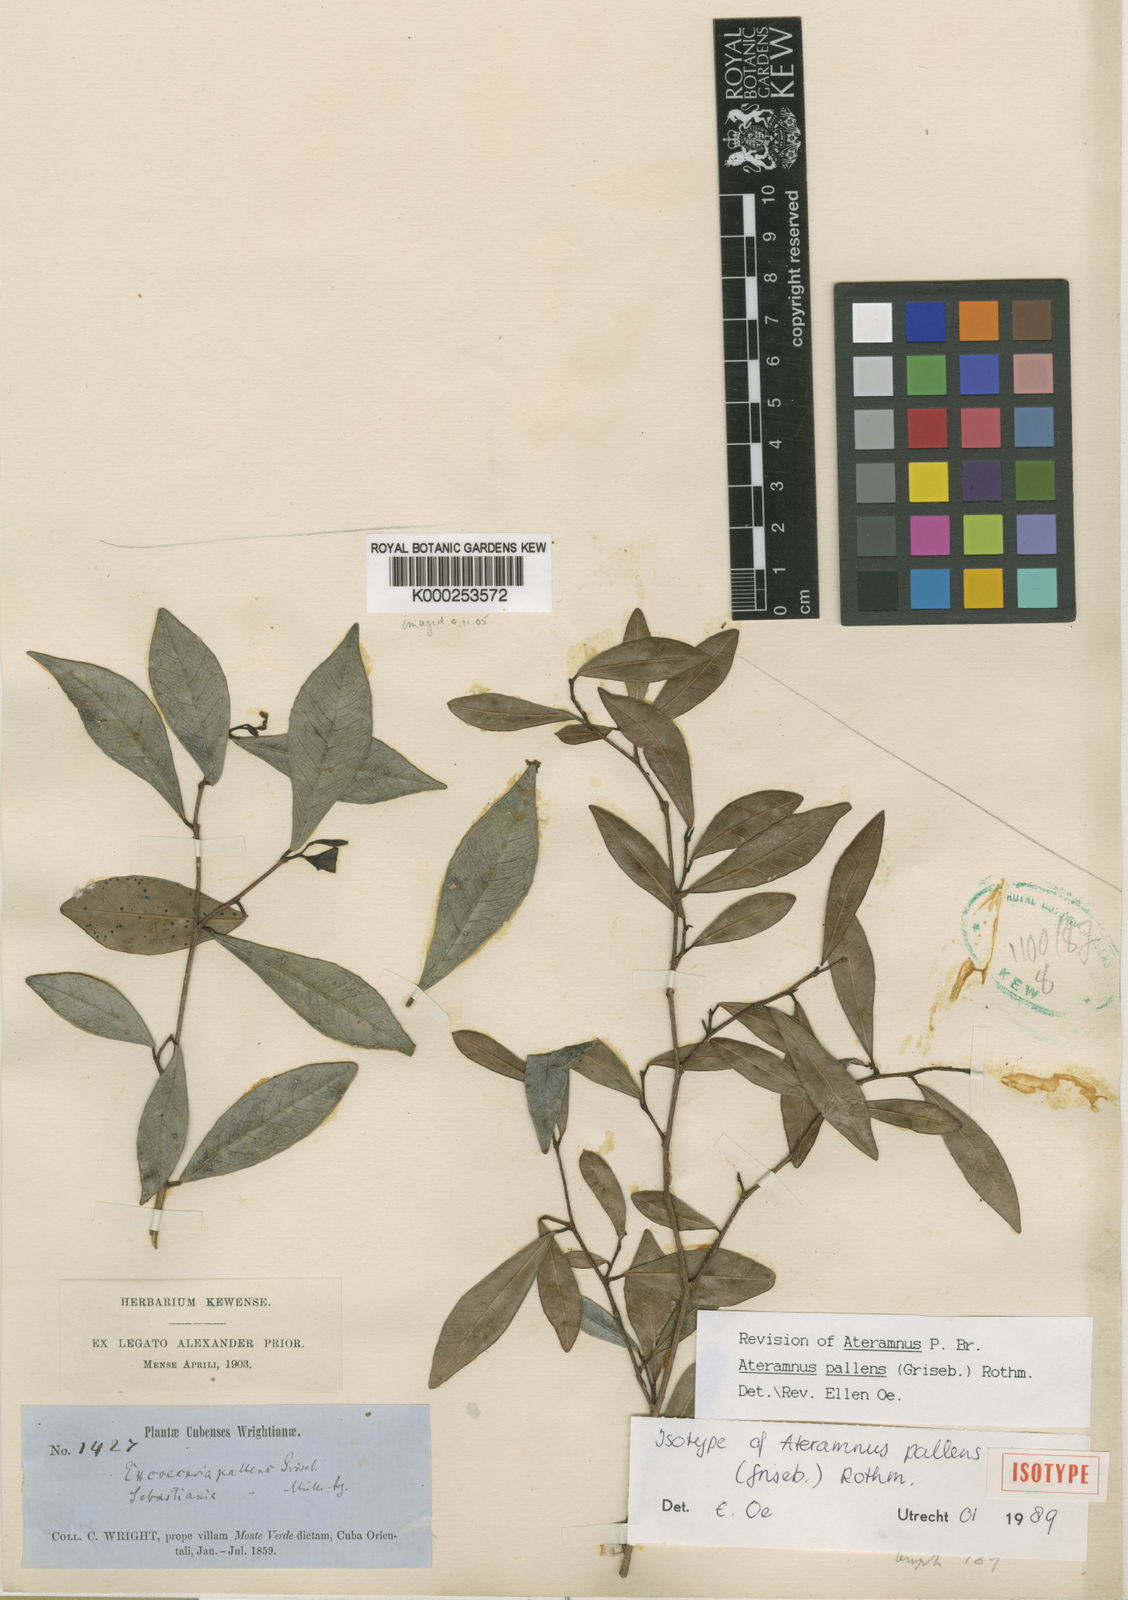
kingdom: Plantae
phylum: Tracheophyta
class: Magnoliopsida
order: Malpighiales
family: Euphorbiaceae
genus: Gymnanthes
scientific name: Gymnanthes
